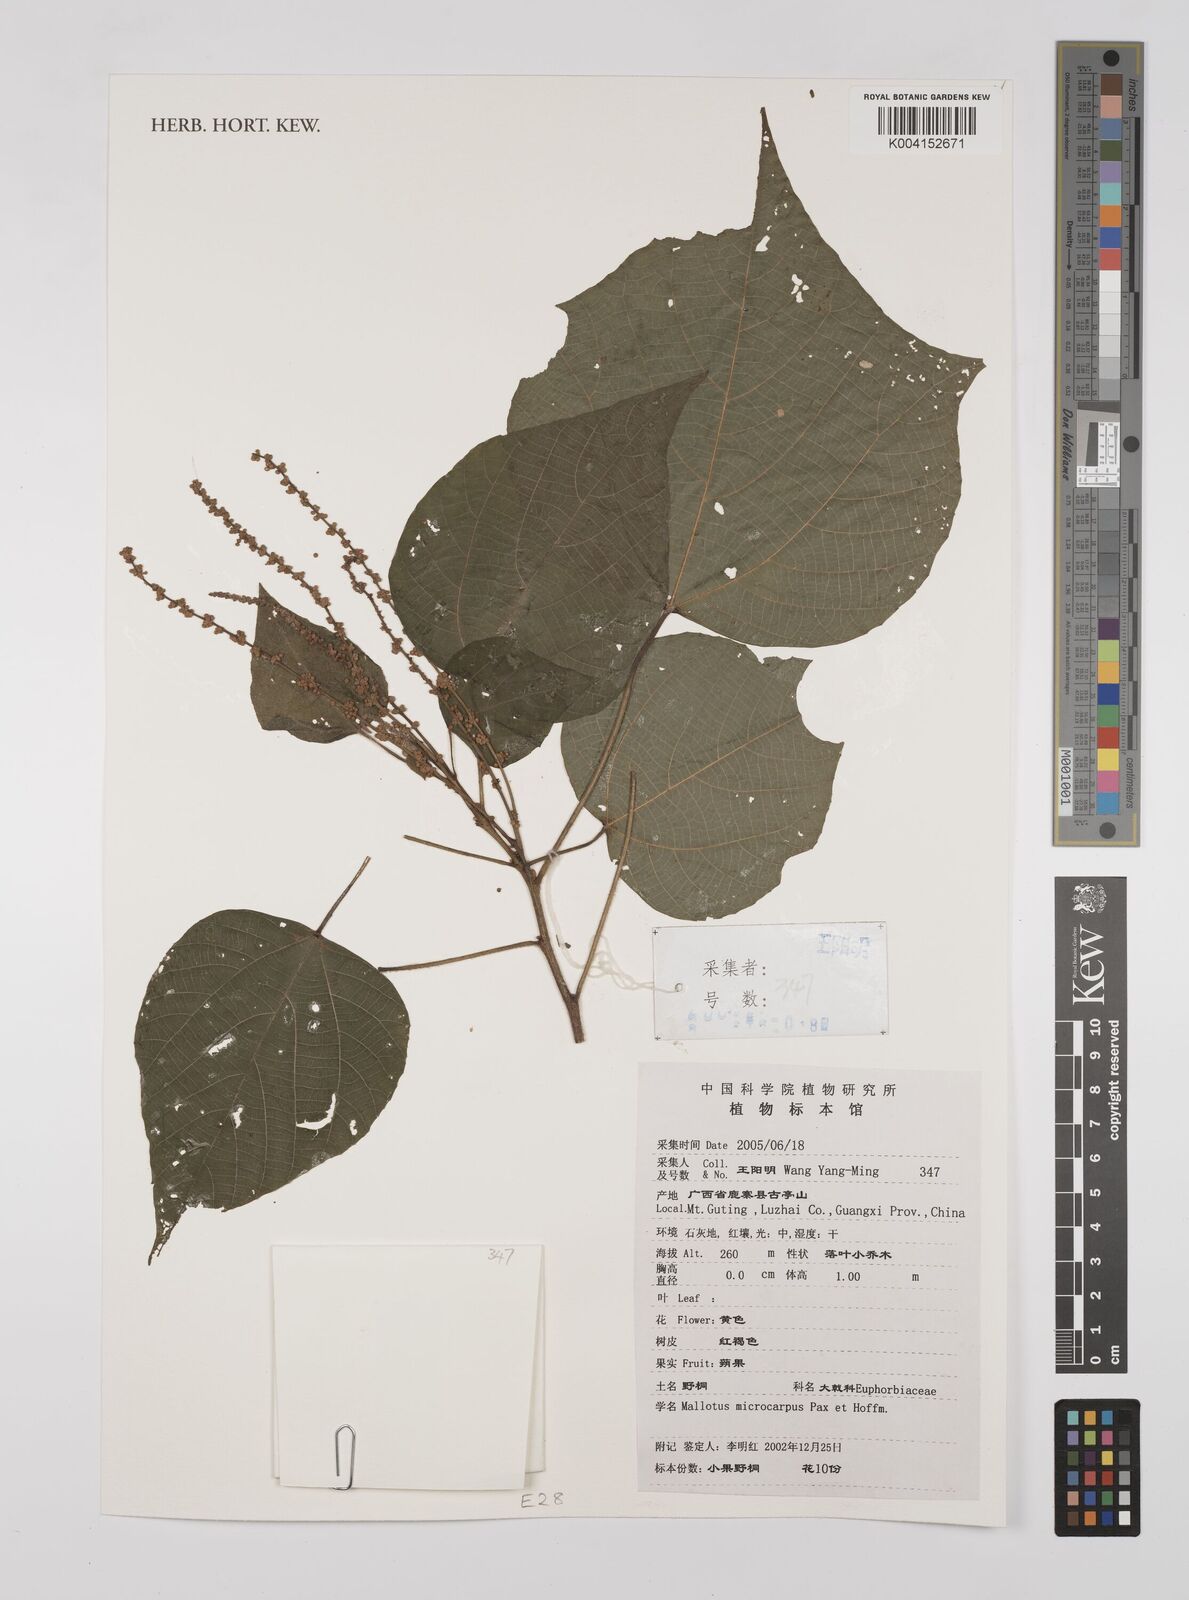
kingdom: Plantae
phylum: Tracheophyta
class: Magnoliopsida
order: Malpighiales
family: Euphorbiaceae
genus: Mallotus
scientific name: Mallotus microcarpus
